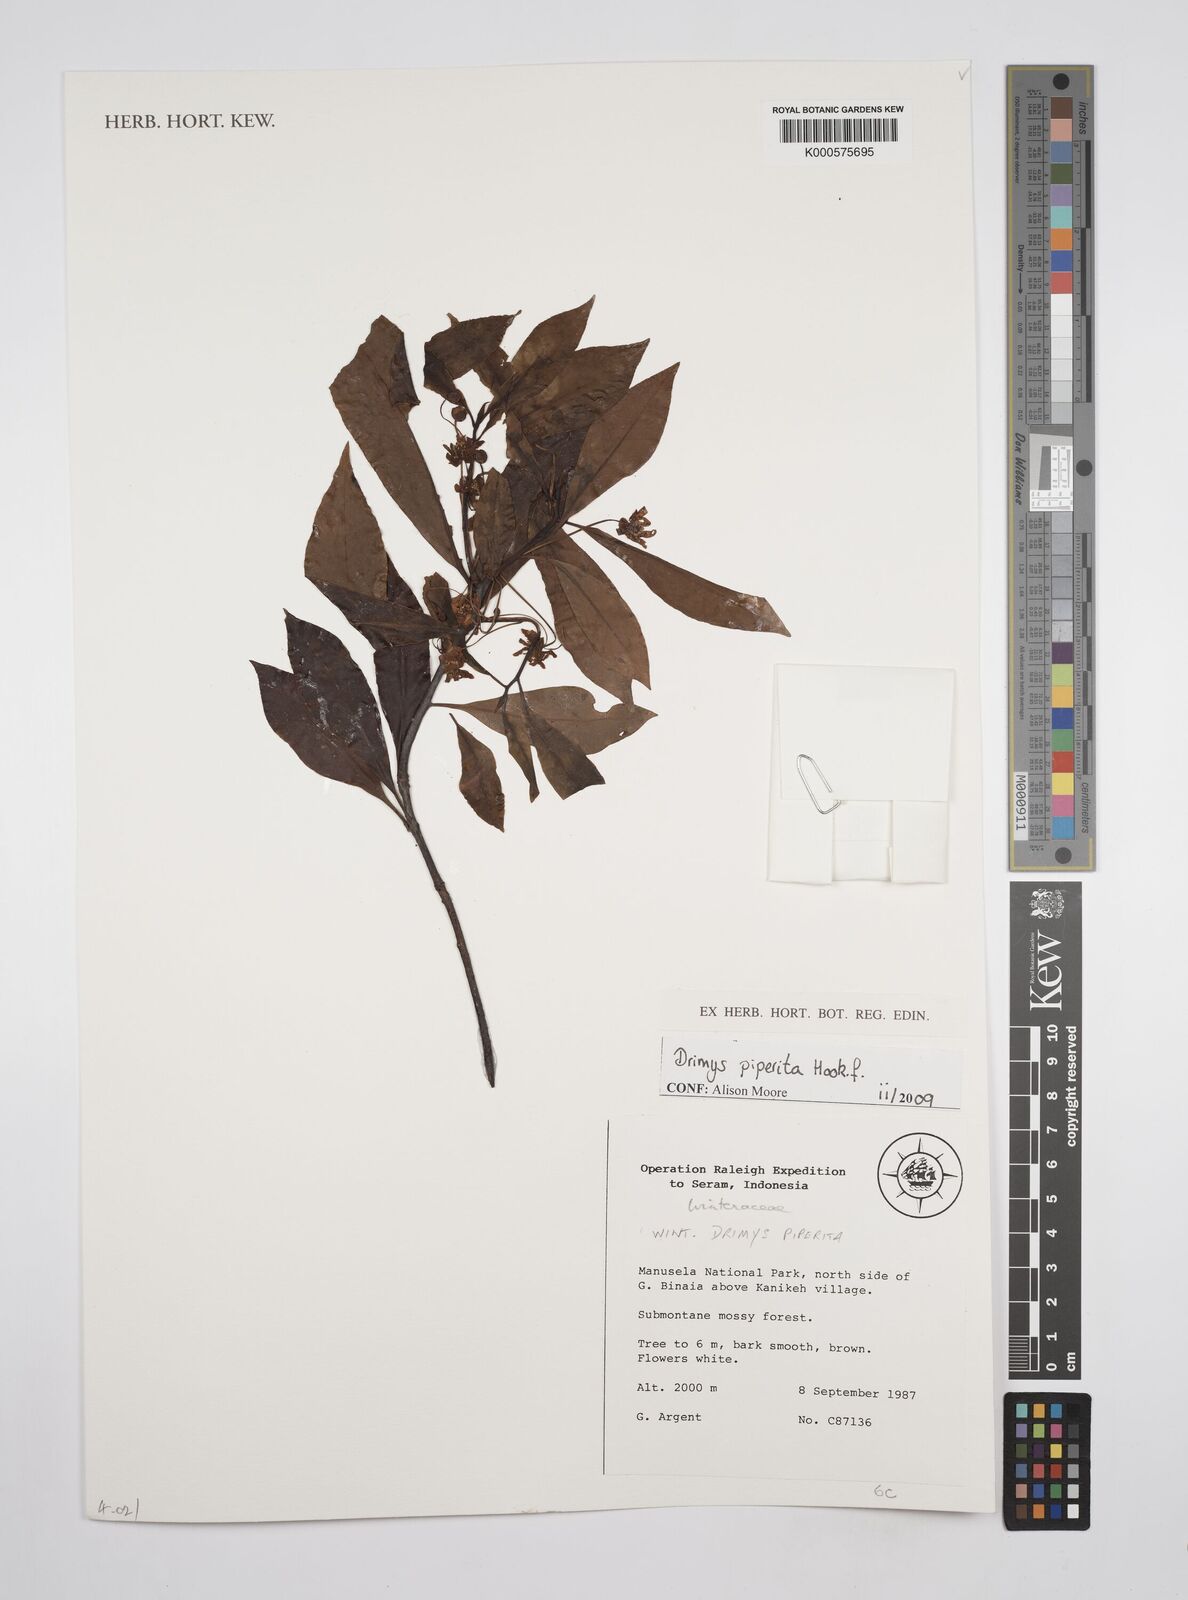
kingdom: Plantae
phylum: Tracheophyta
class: Magnoliopsida
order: Canellales
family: Winteraceae
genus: Drimys
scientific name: Drimys piperita
